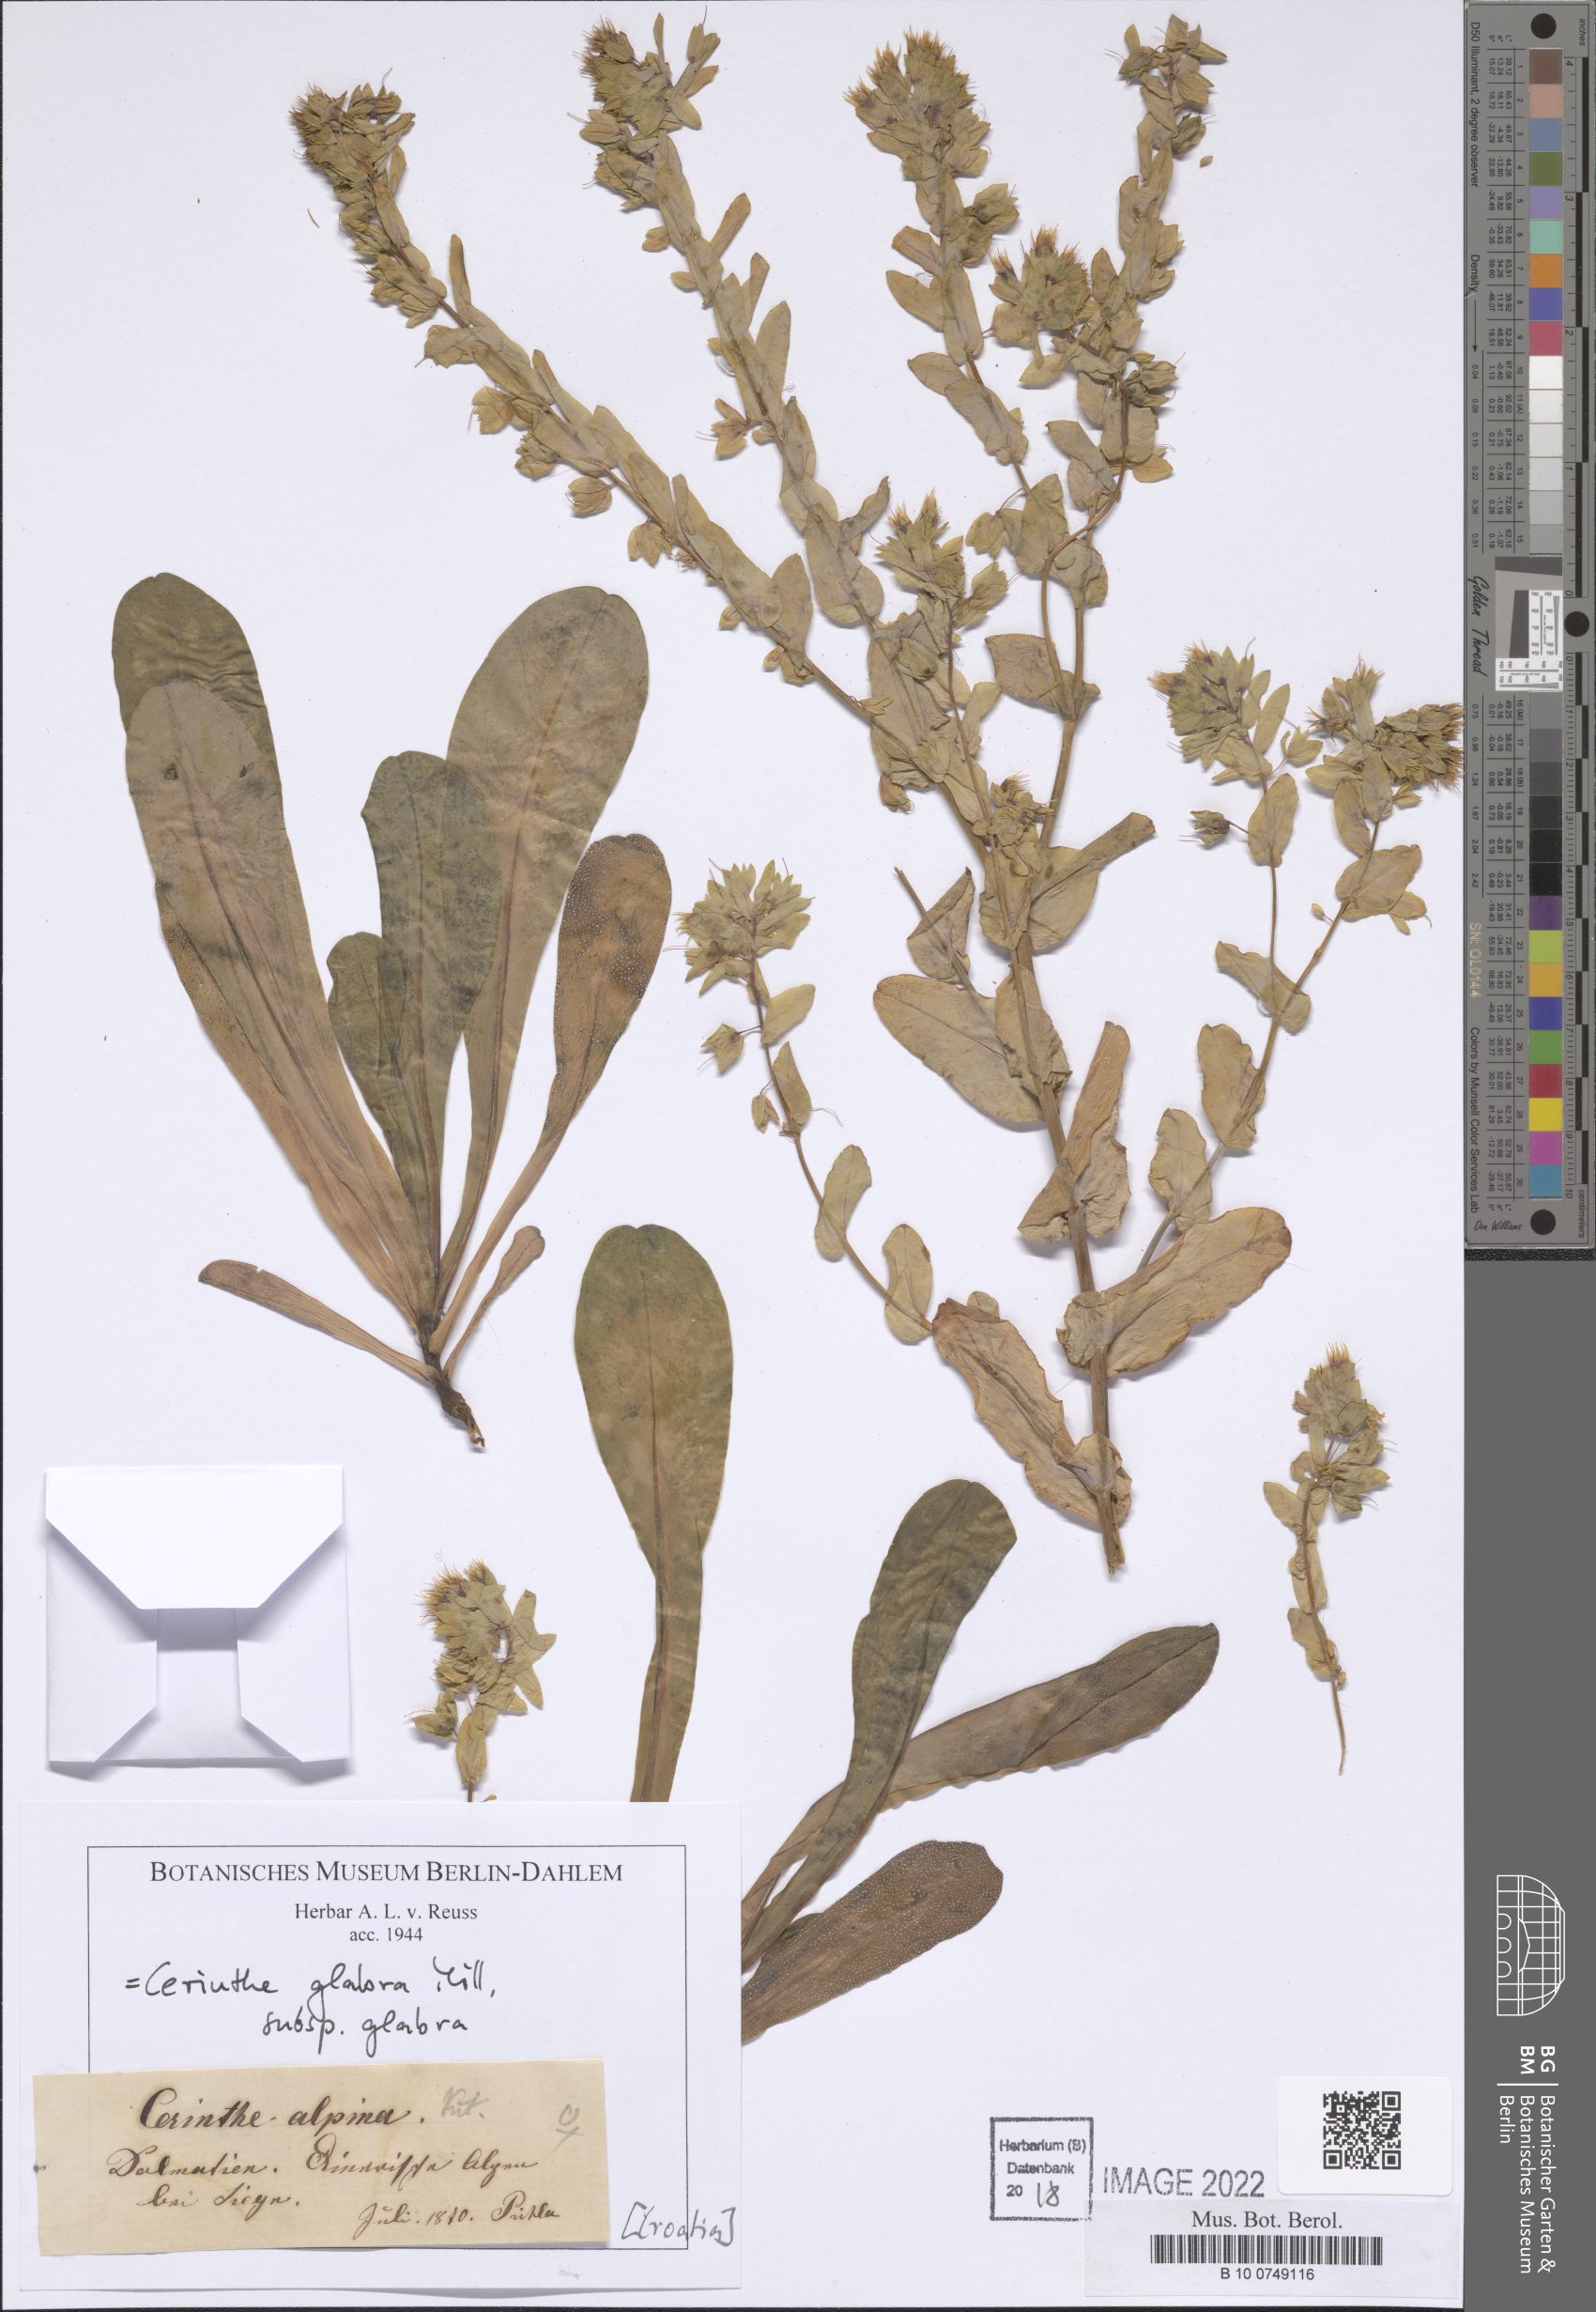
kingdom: Plantae
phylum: Tracheophyta
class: Magnoliopsida
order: Boraginales
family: Boraginaceae
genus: Cerinthe
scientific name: Cerinthe glabra
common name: Smooth honeywort
